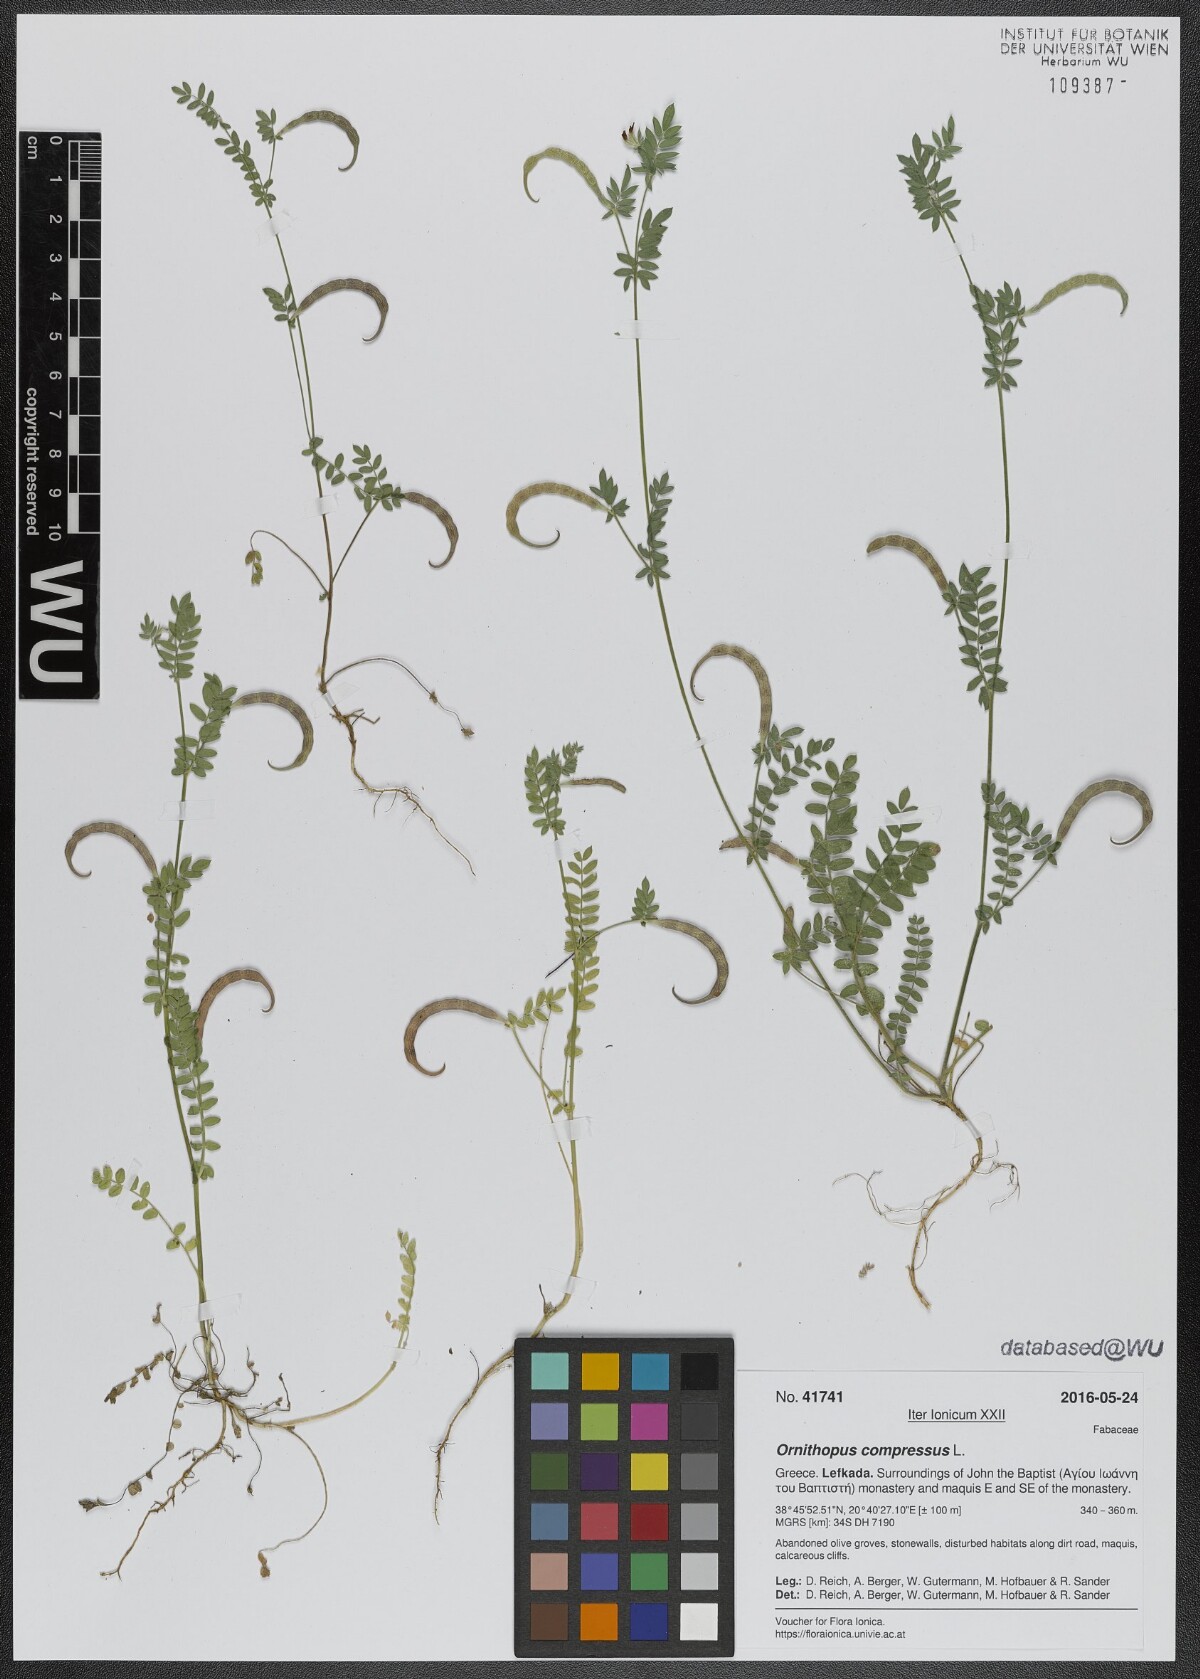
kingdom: Plantae
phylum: Tracheophyta
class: Magnoliopsida
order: Fabales
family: Fabaceae
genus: Ornithopus
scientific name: Ornithopus compressus
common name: Yellow serradella
